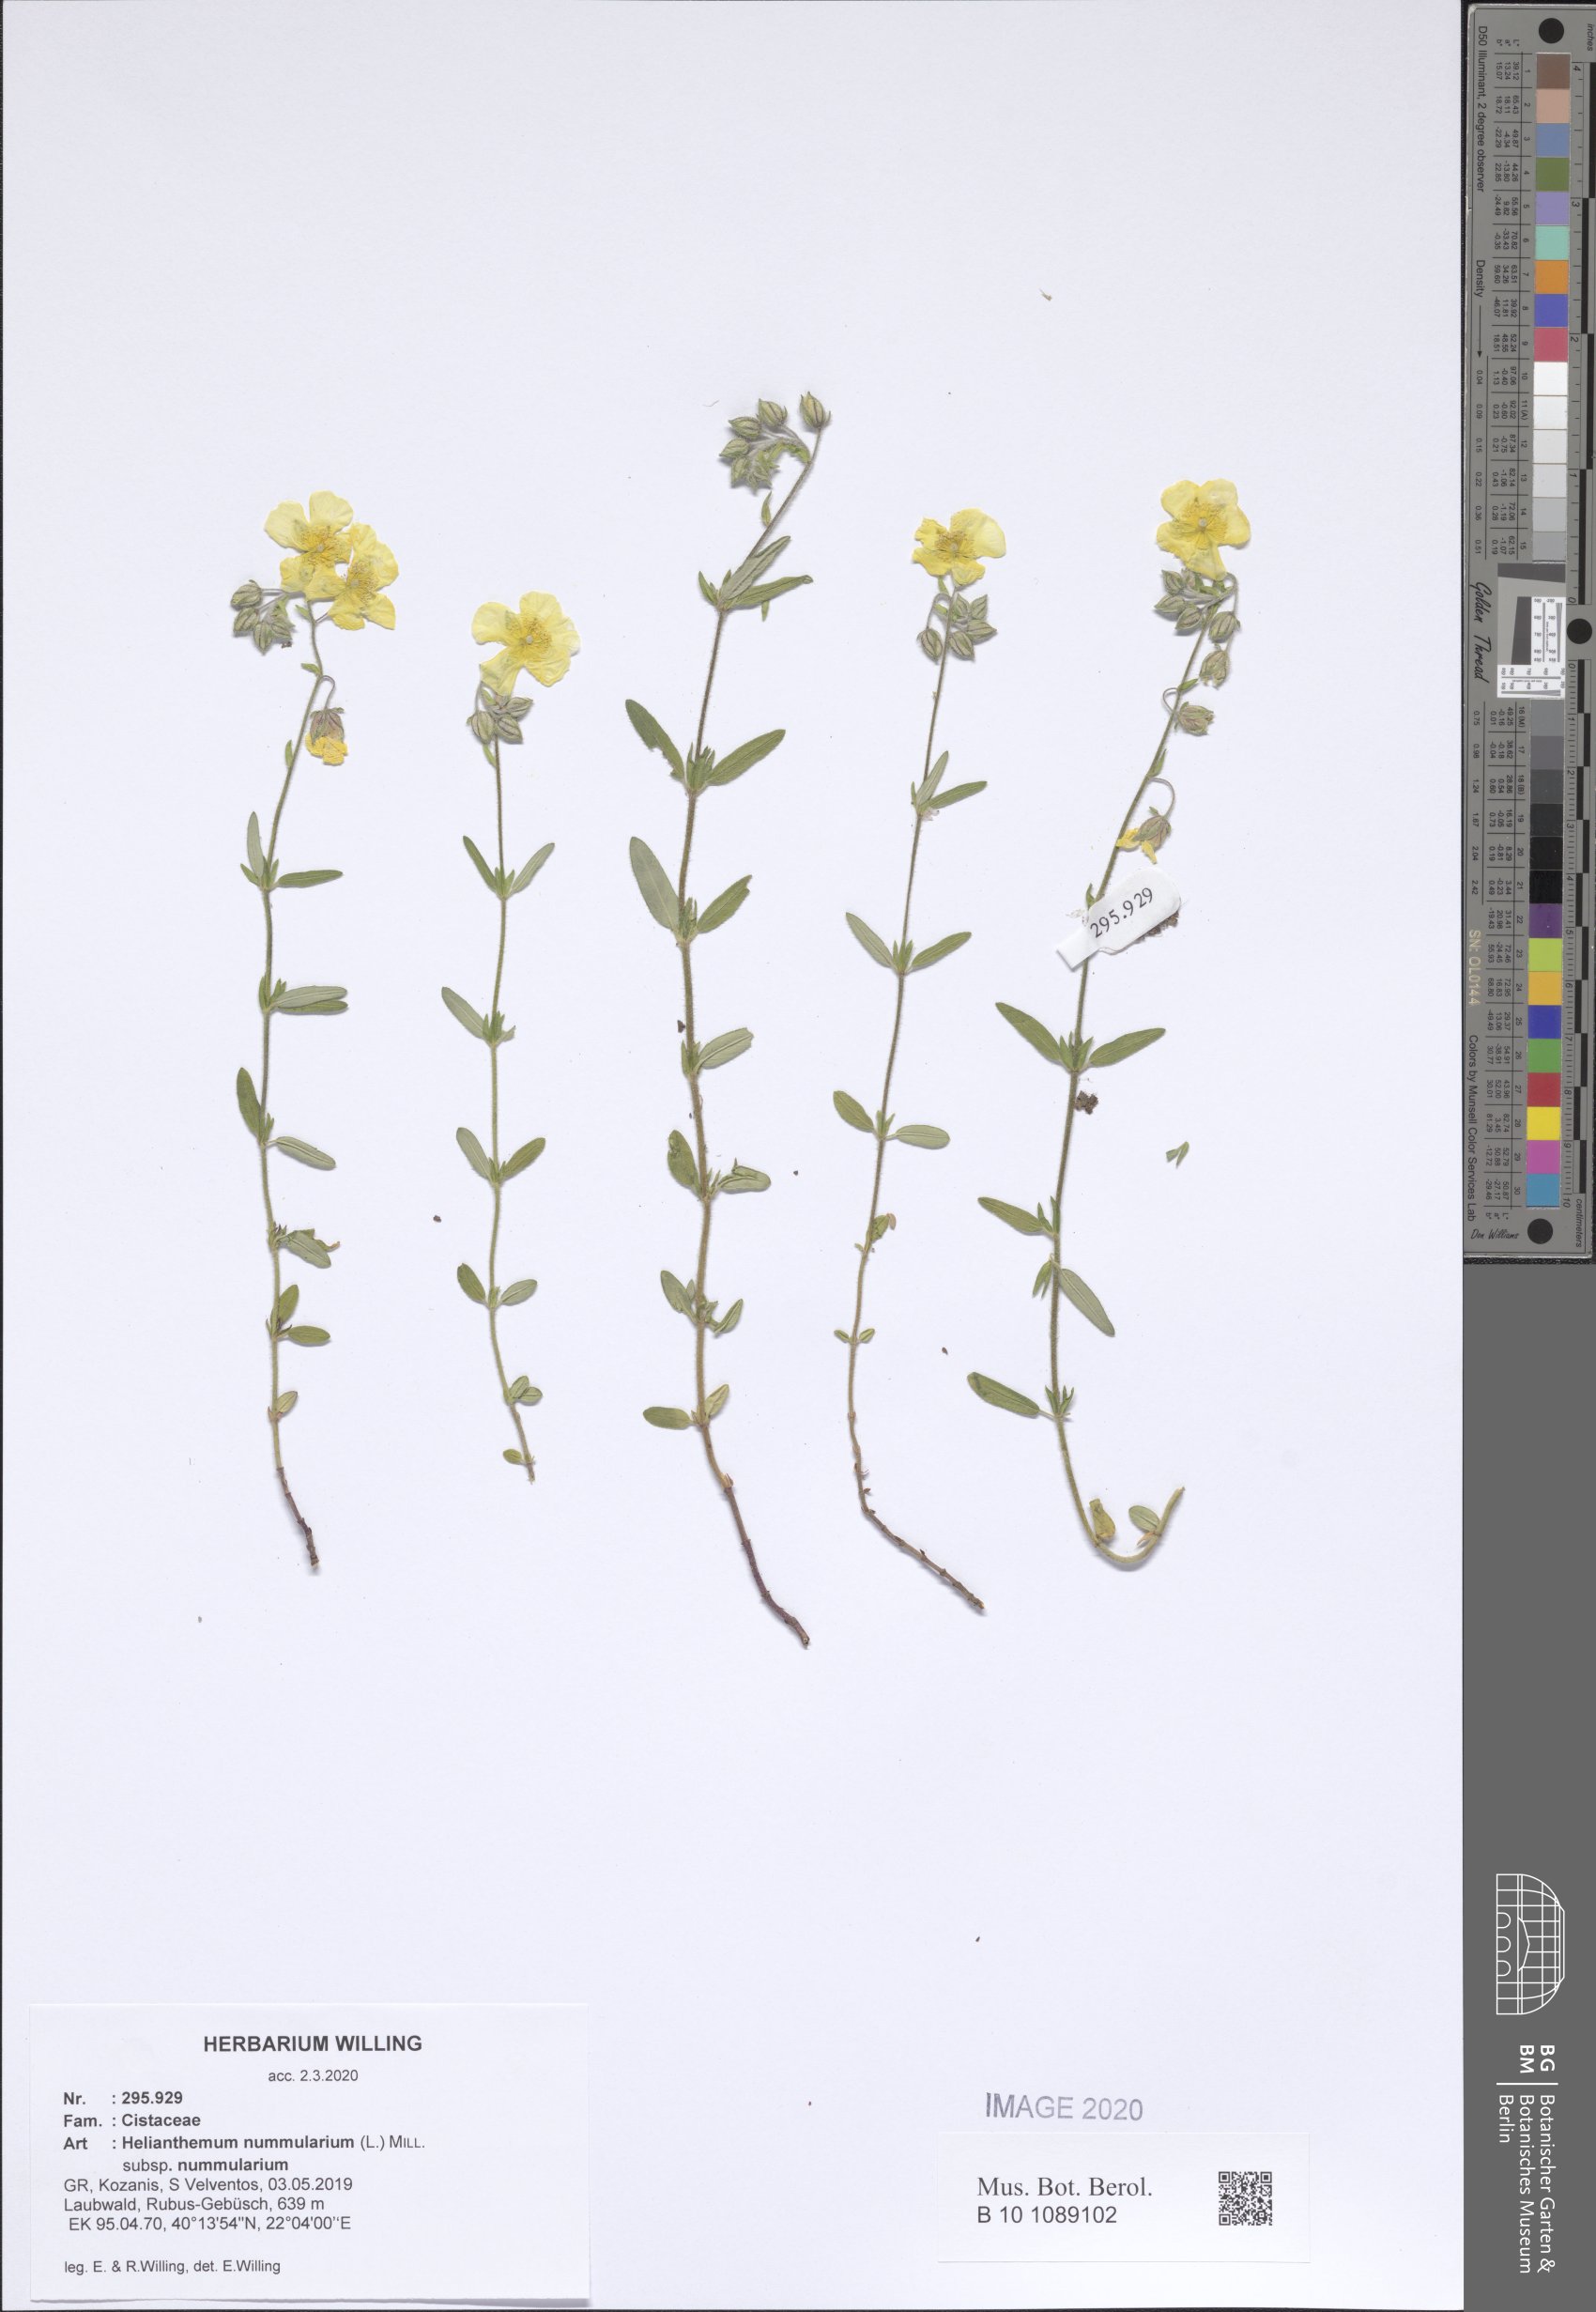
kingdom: Plantae
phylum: Tracheophyta
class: Magnoliopsida
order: Malvales
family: Cistaceae
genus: Helianthemum
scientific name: Helianthemum nummularium
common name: Common rock-rose
